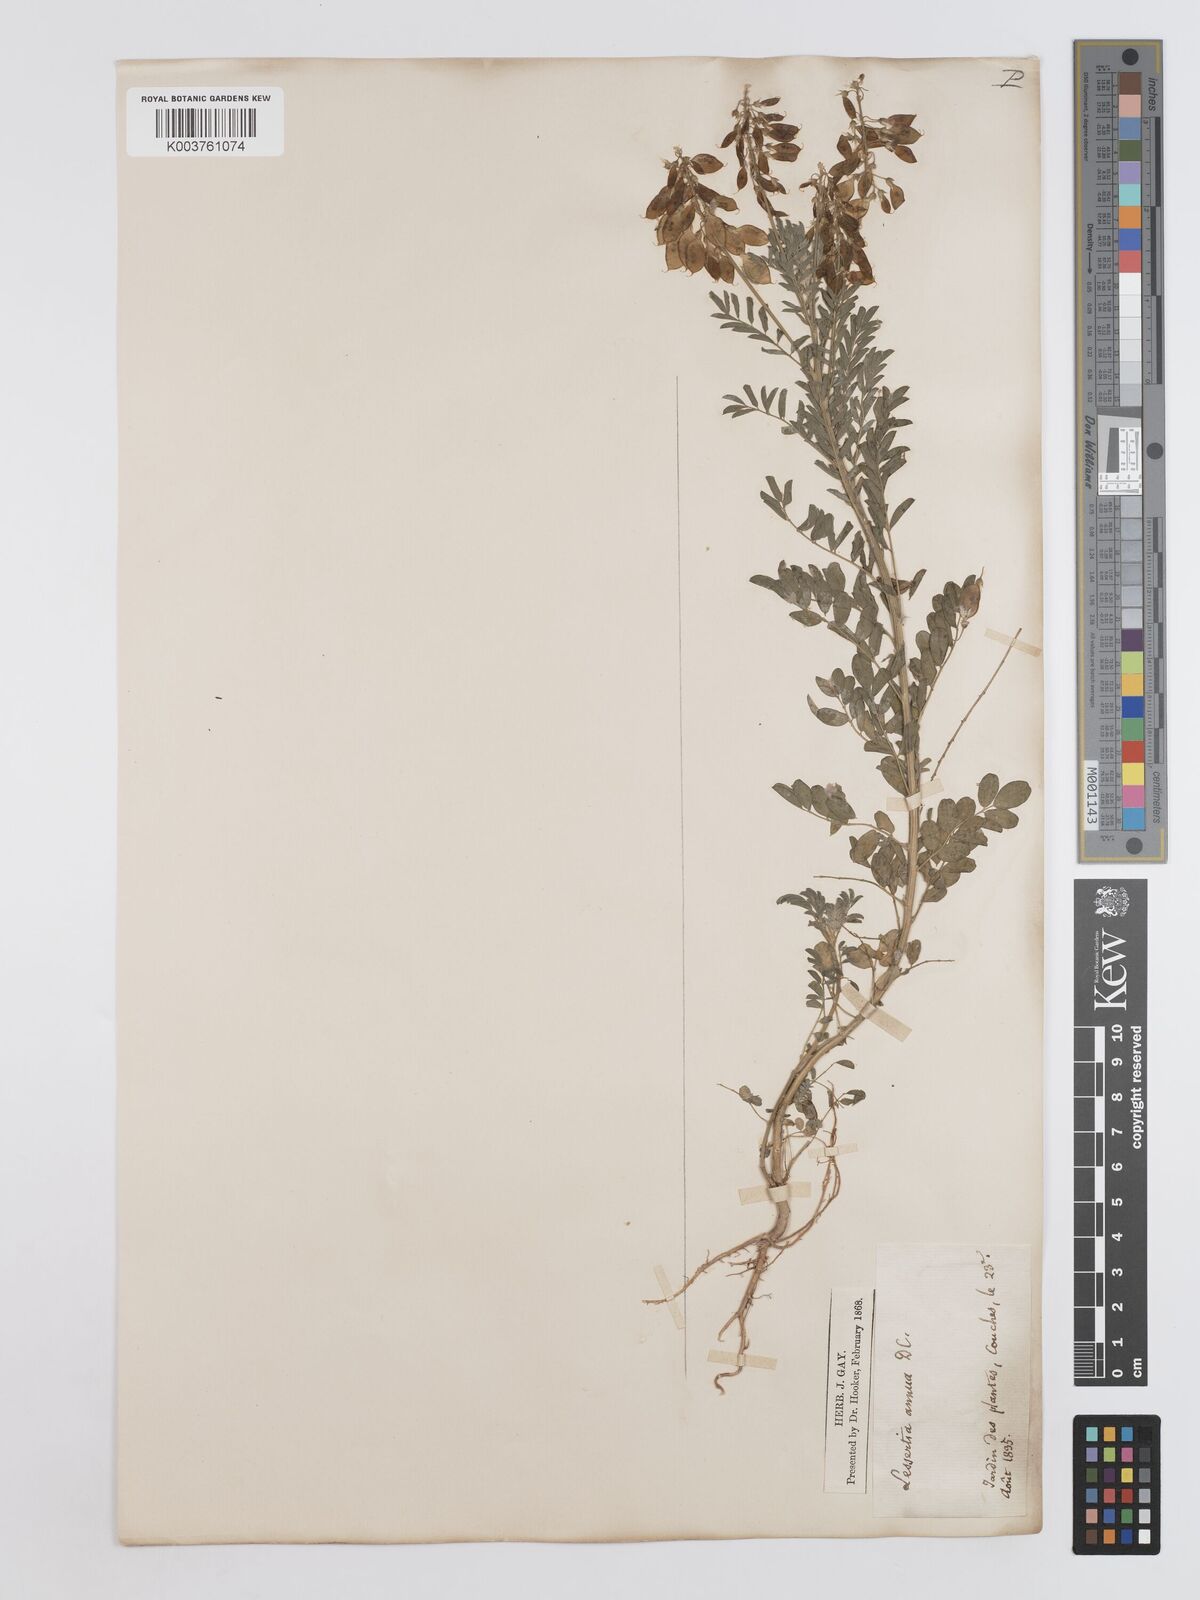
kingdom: Plantae
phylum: Tracheophyta
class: Magnoliopsida
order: Fabales
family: Fabaceae
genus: Lessertia
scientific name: Lessertia herbacea
